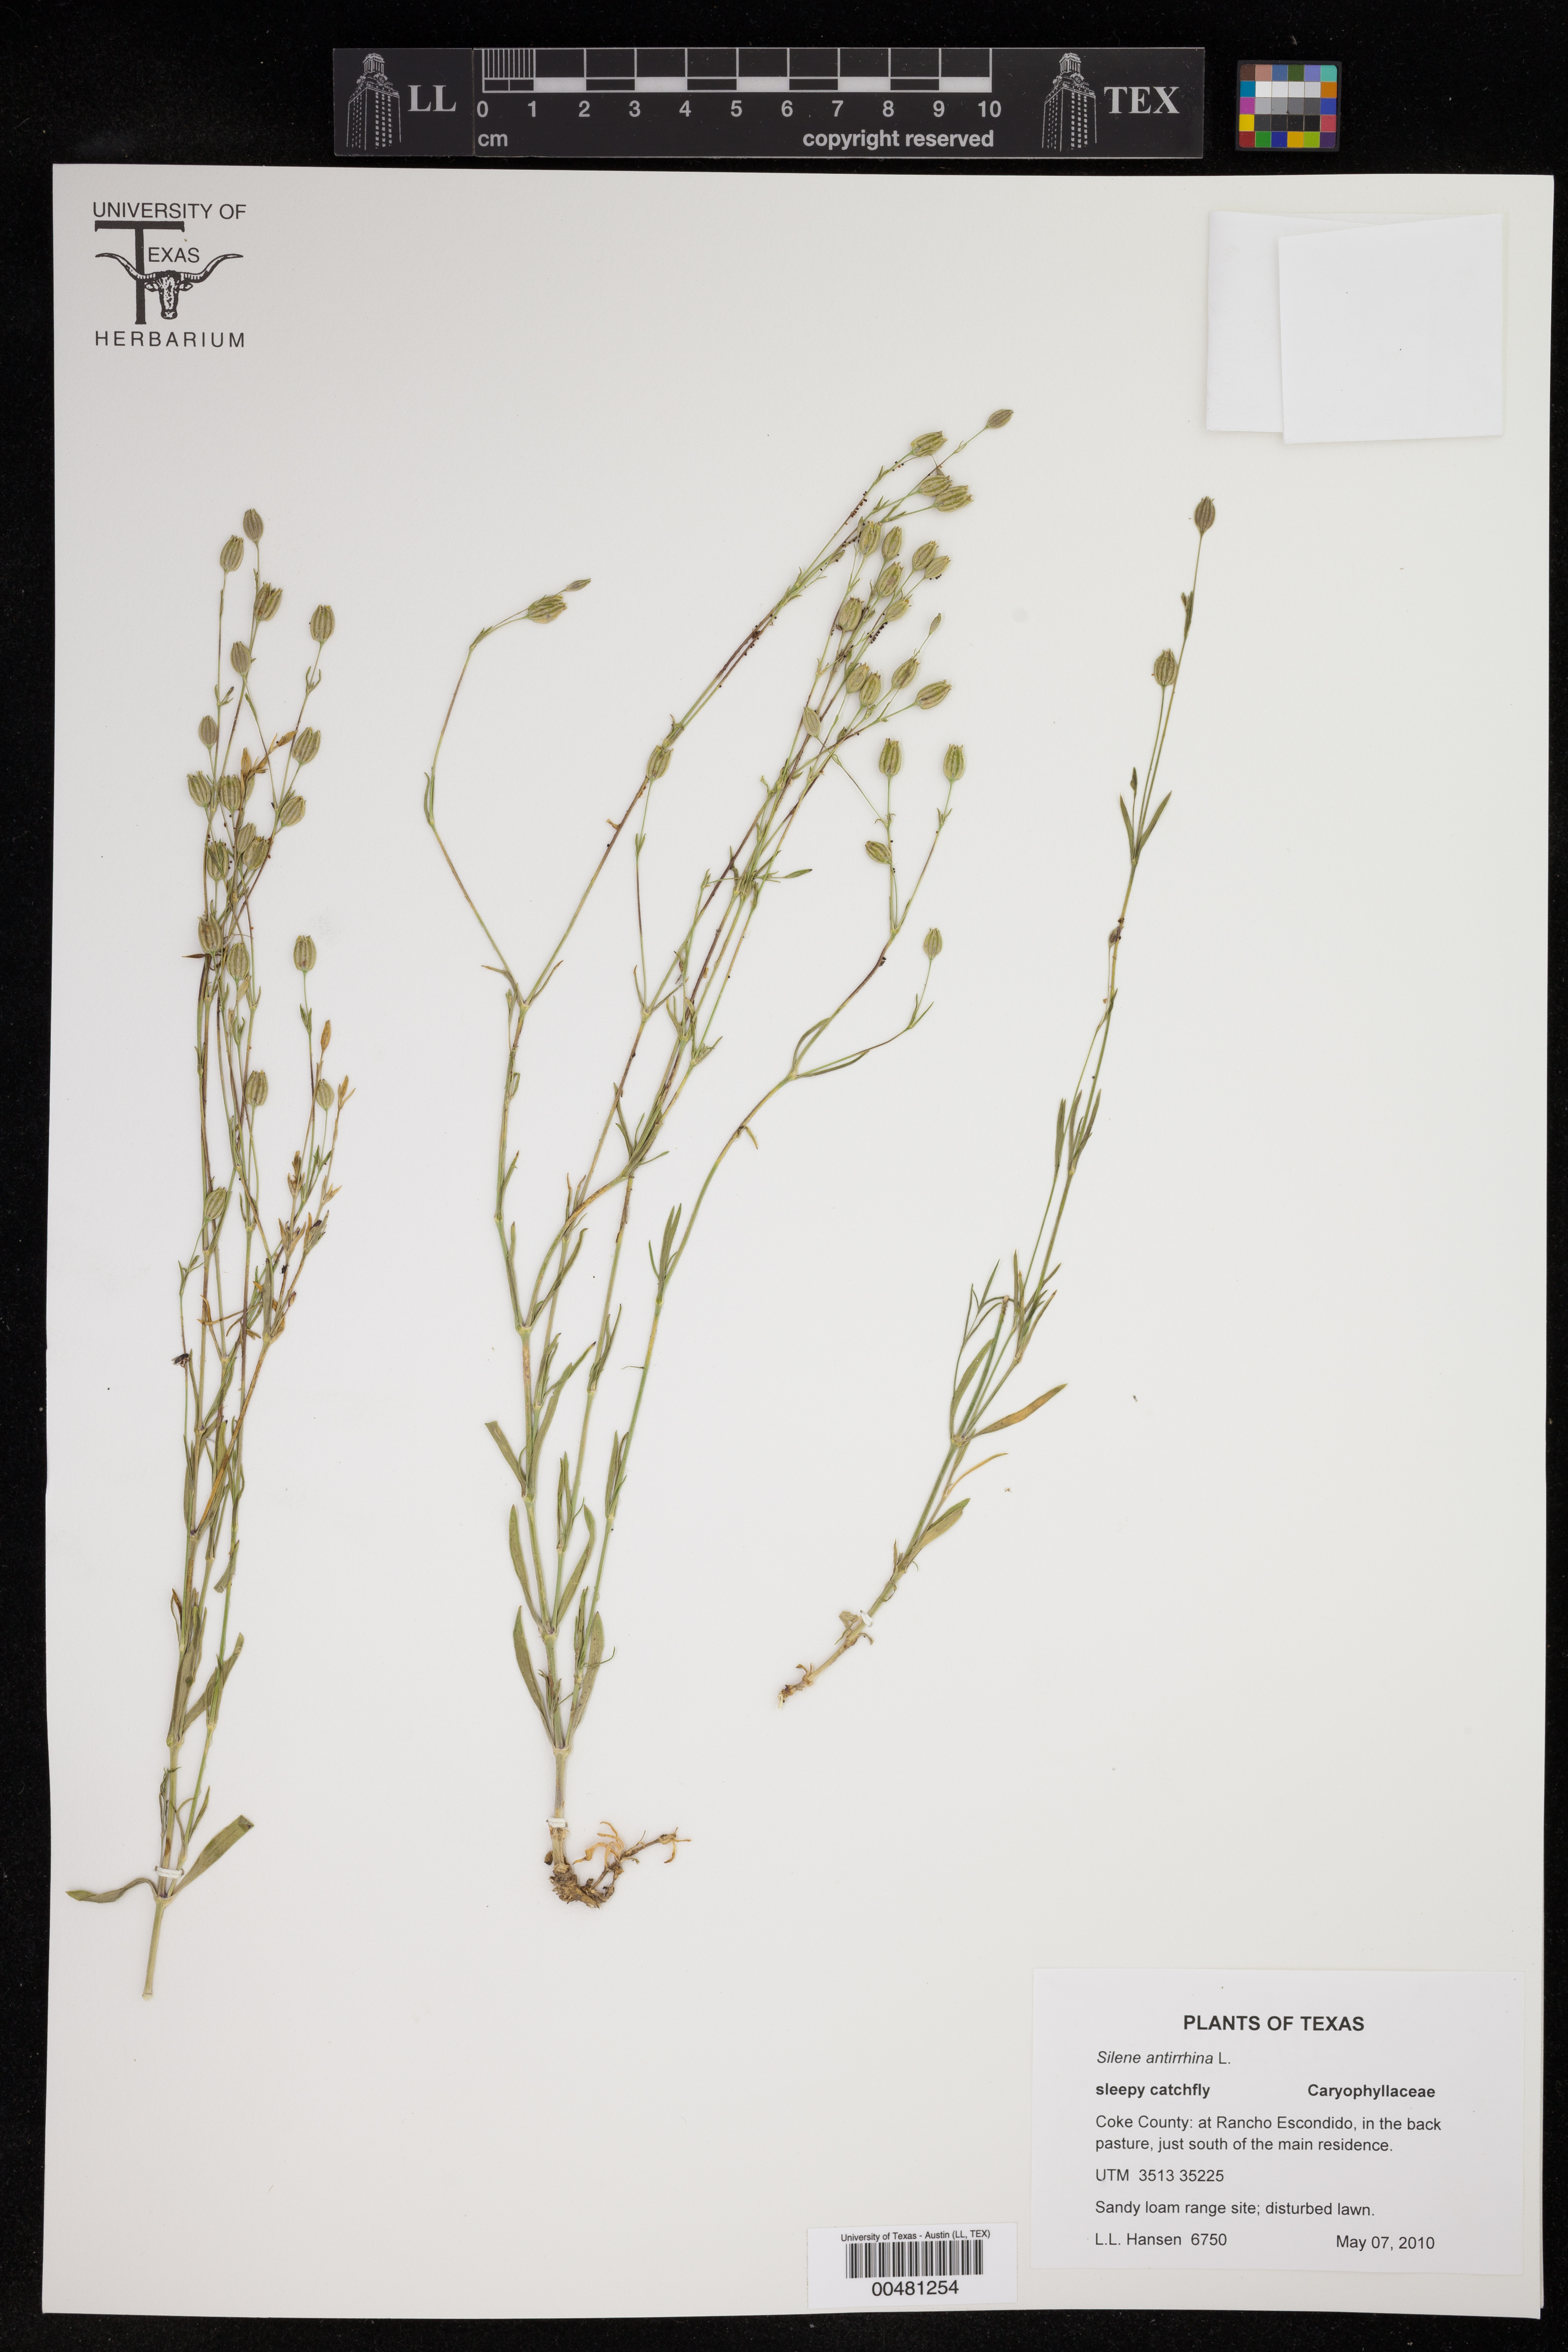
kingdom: Plantae
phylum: Tracheophyta
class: Magnoliopsida
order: Caryophyllales
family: Caryophyllaceae
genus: Silene
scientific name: Silene antirrhina
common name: Sleepy catchfly
